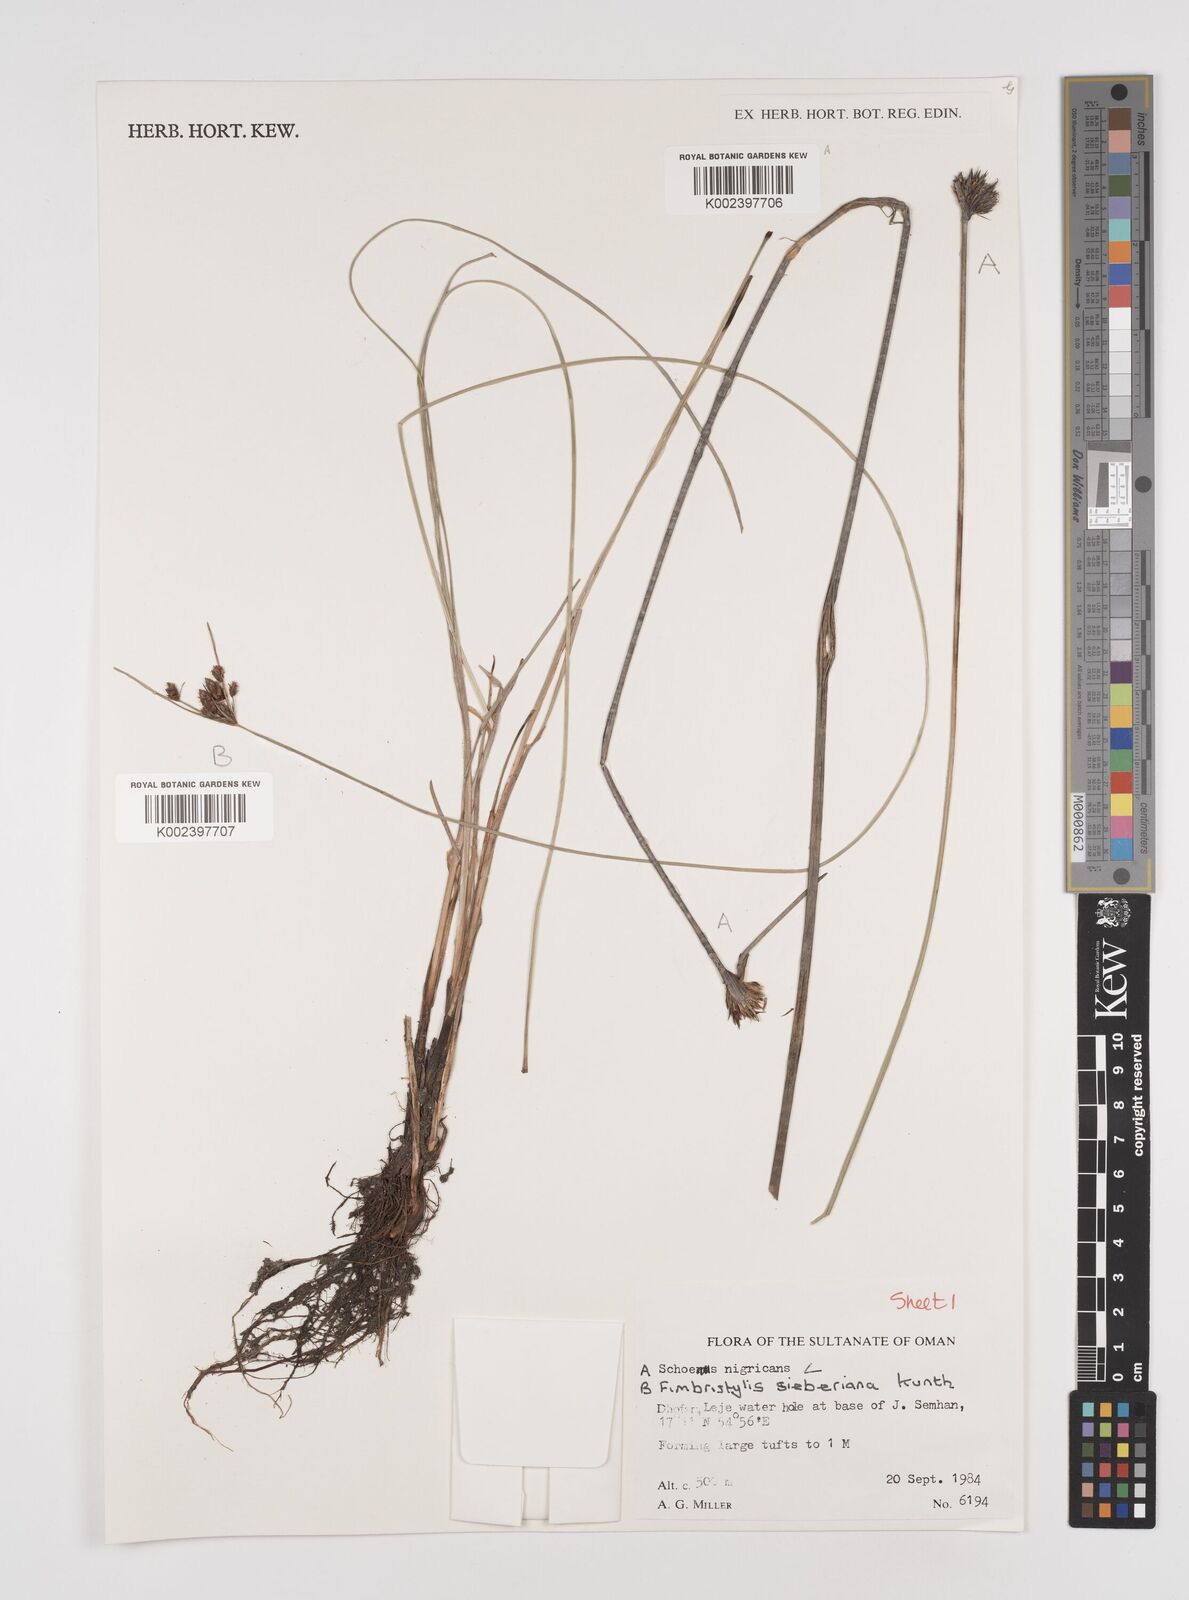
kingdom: Plantae
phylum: Tracheophyta
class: Liliopsida
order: Poales
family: Cyperaceae
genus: Schoenus
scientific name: Schoenus nigricans
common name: Black bog-rush
